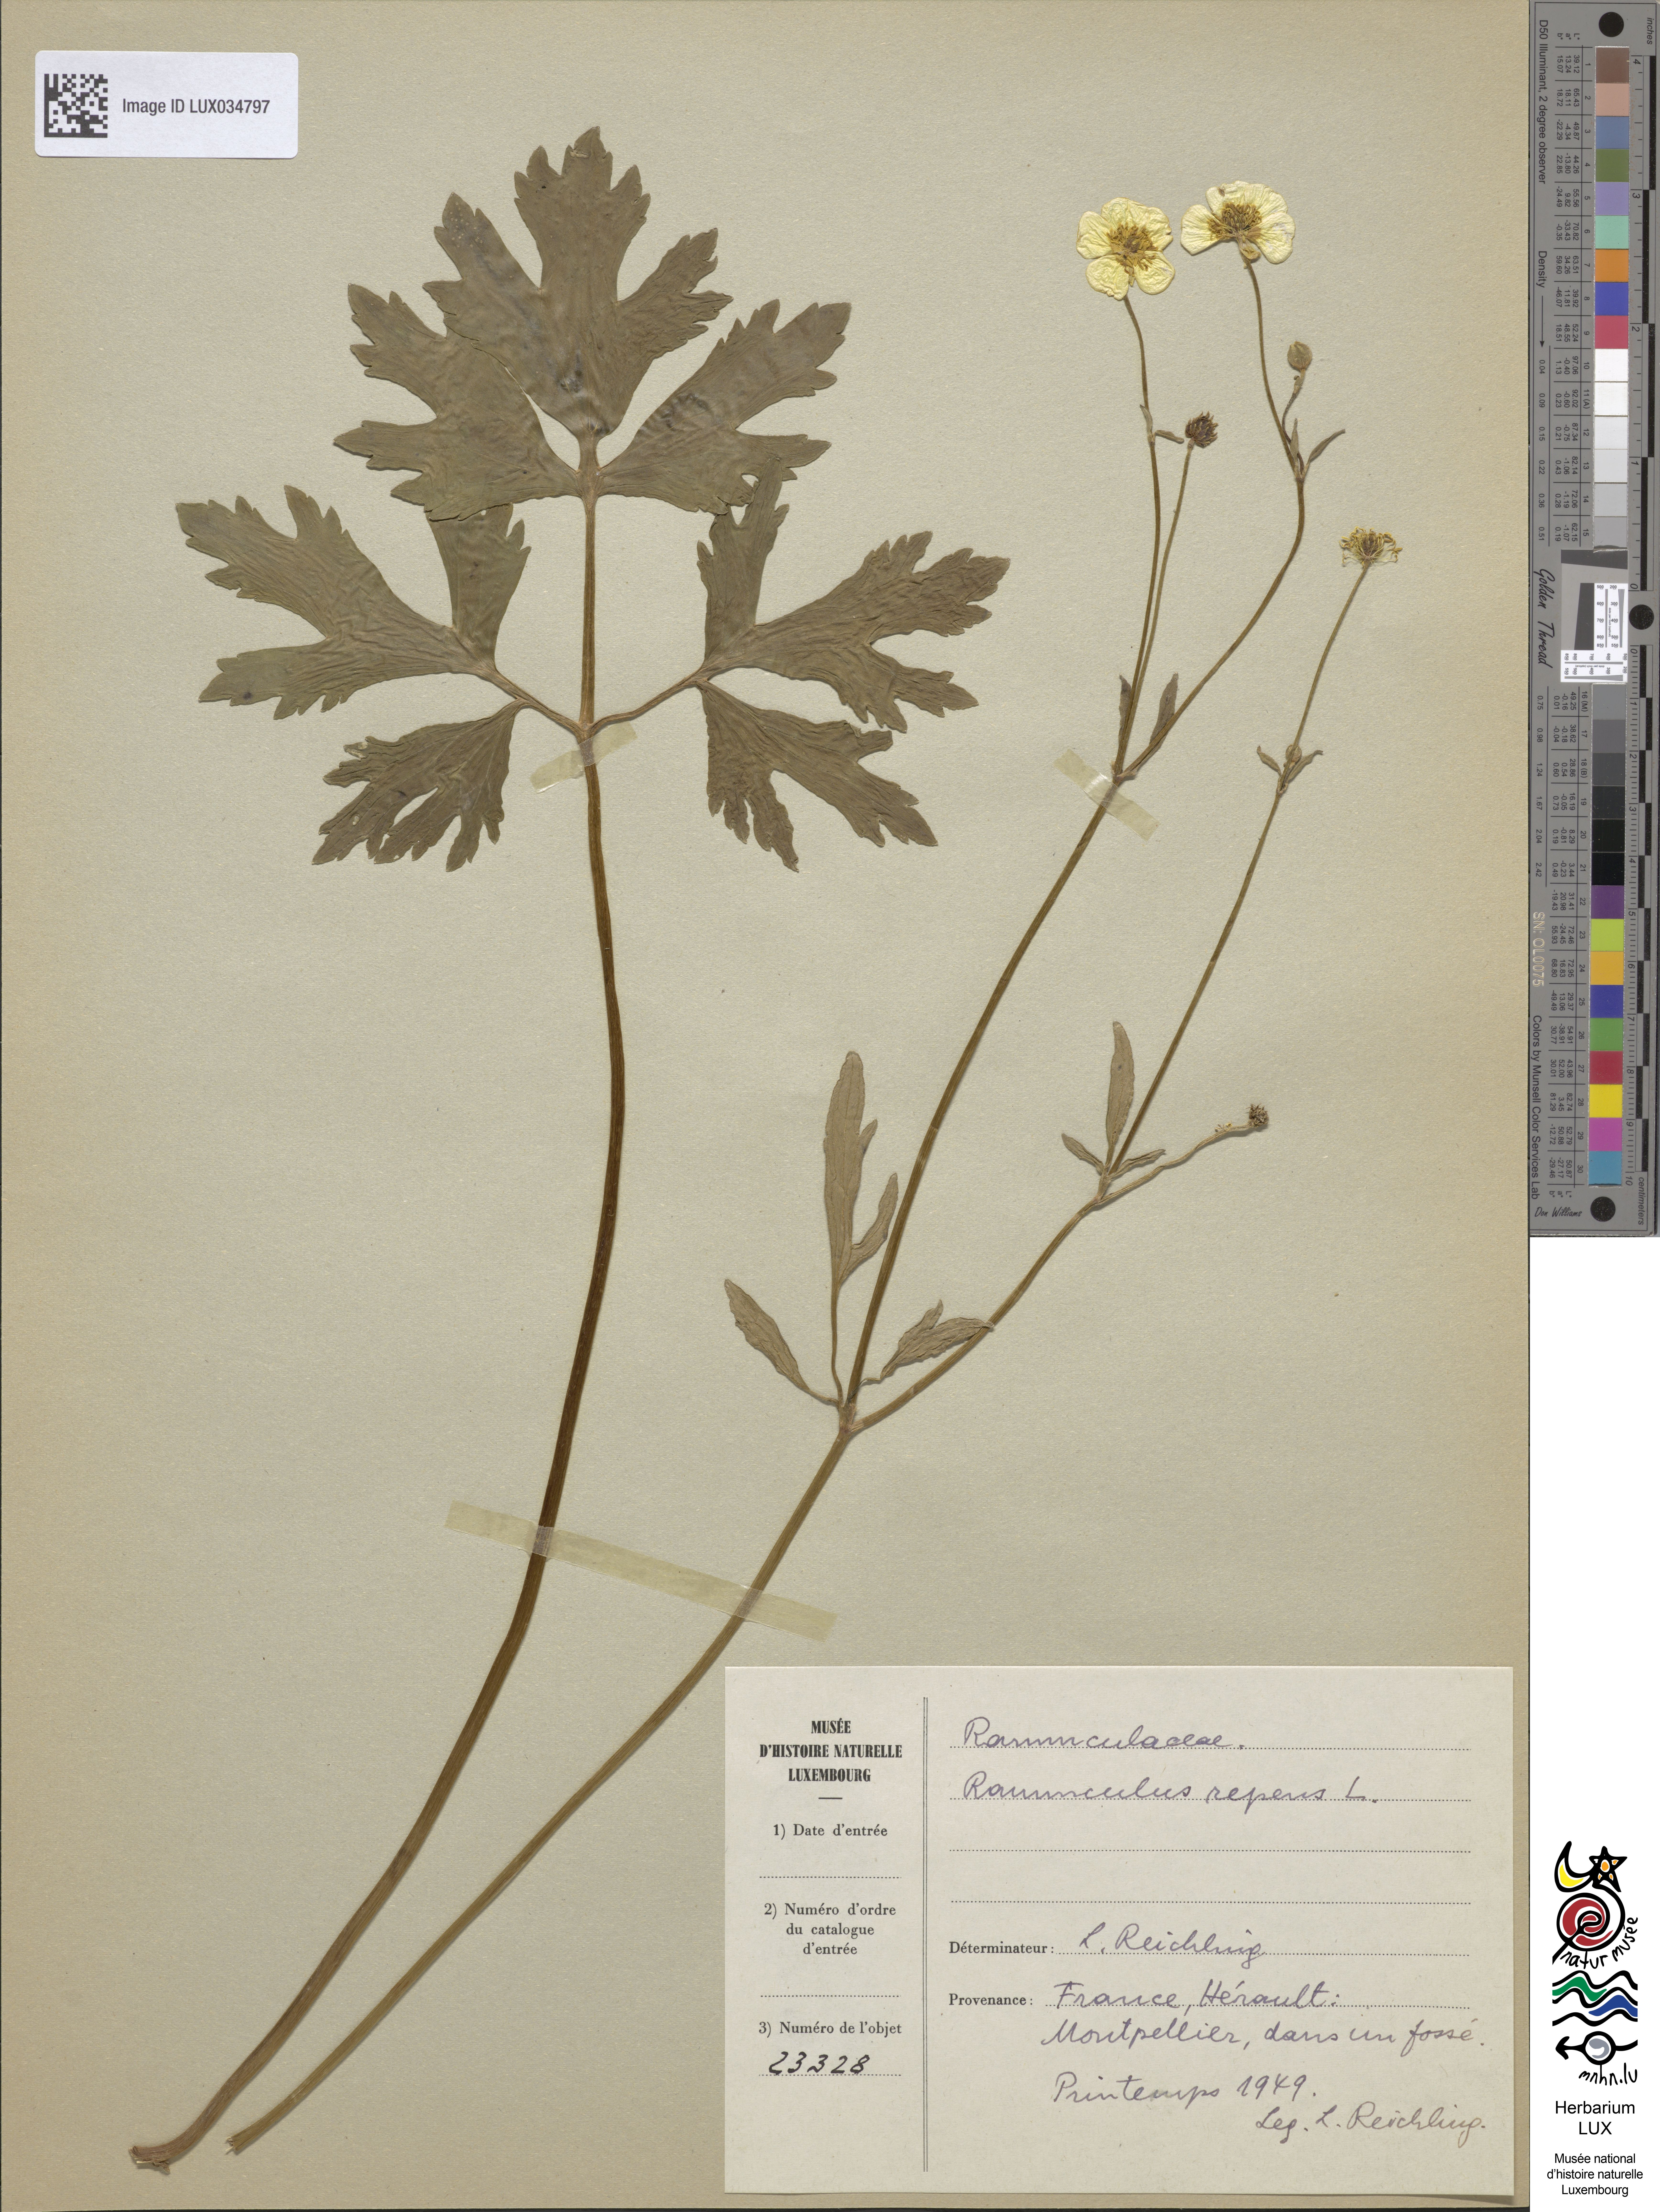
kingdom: Plantae
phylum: Tracheophyta
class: Magnoliopsida
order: Ranunculales
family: Ranunculaceae
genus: Ranunculus
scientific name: Ranunculus repens
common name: Creeping buttercup
